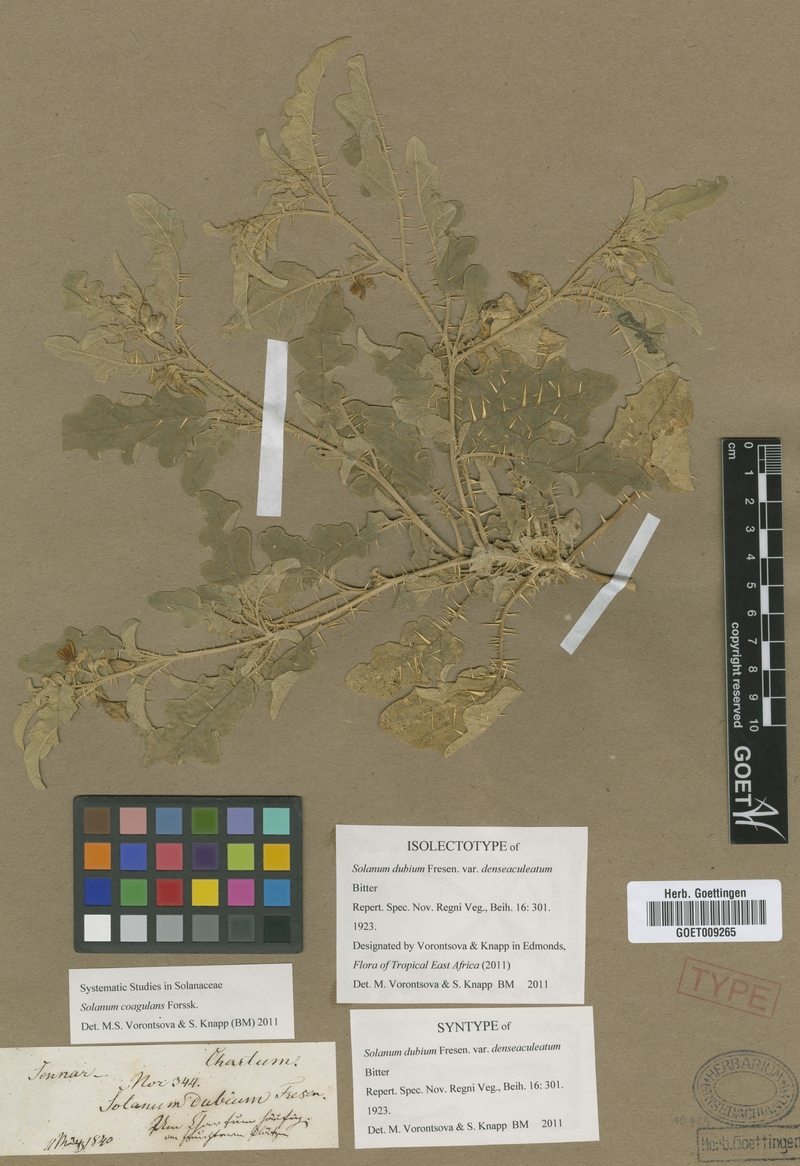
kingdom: Plantae
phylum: Tracheophyta
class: Magnoliopsida
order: Solanales
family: Solanaceae
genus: Solanum
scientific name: Solanum coagulans
